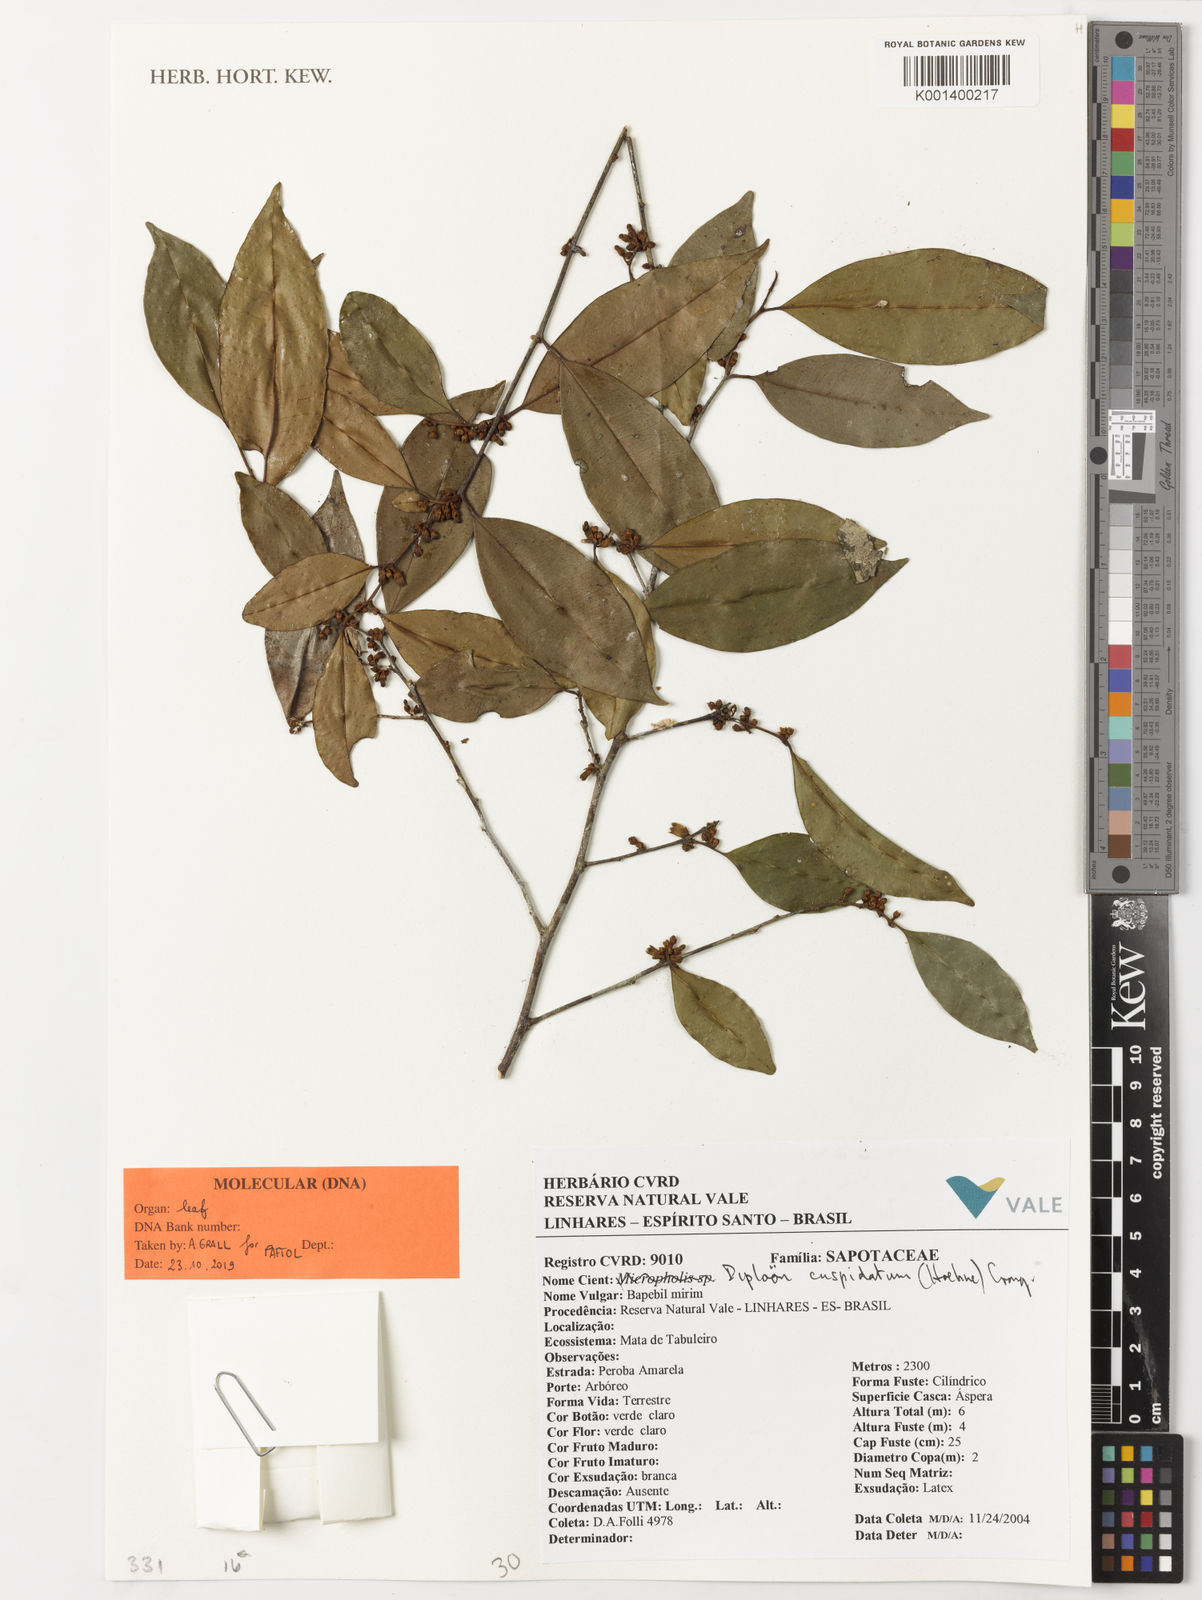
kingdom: Plantae
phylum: Tracheophyta
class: Magnoliopsida
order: Ericales
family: Sapotaceae
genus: Diploon
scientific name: Diploon cuspidatum
